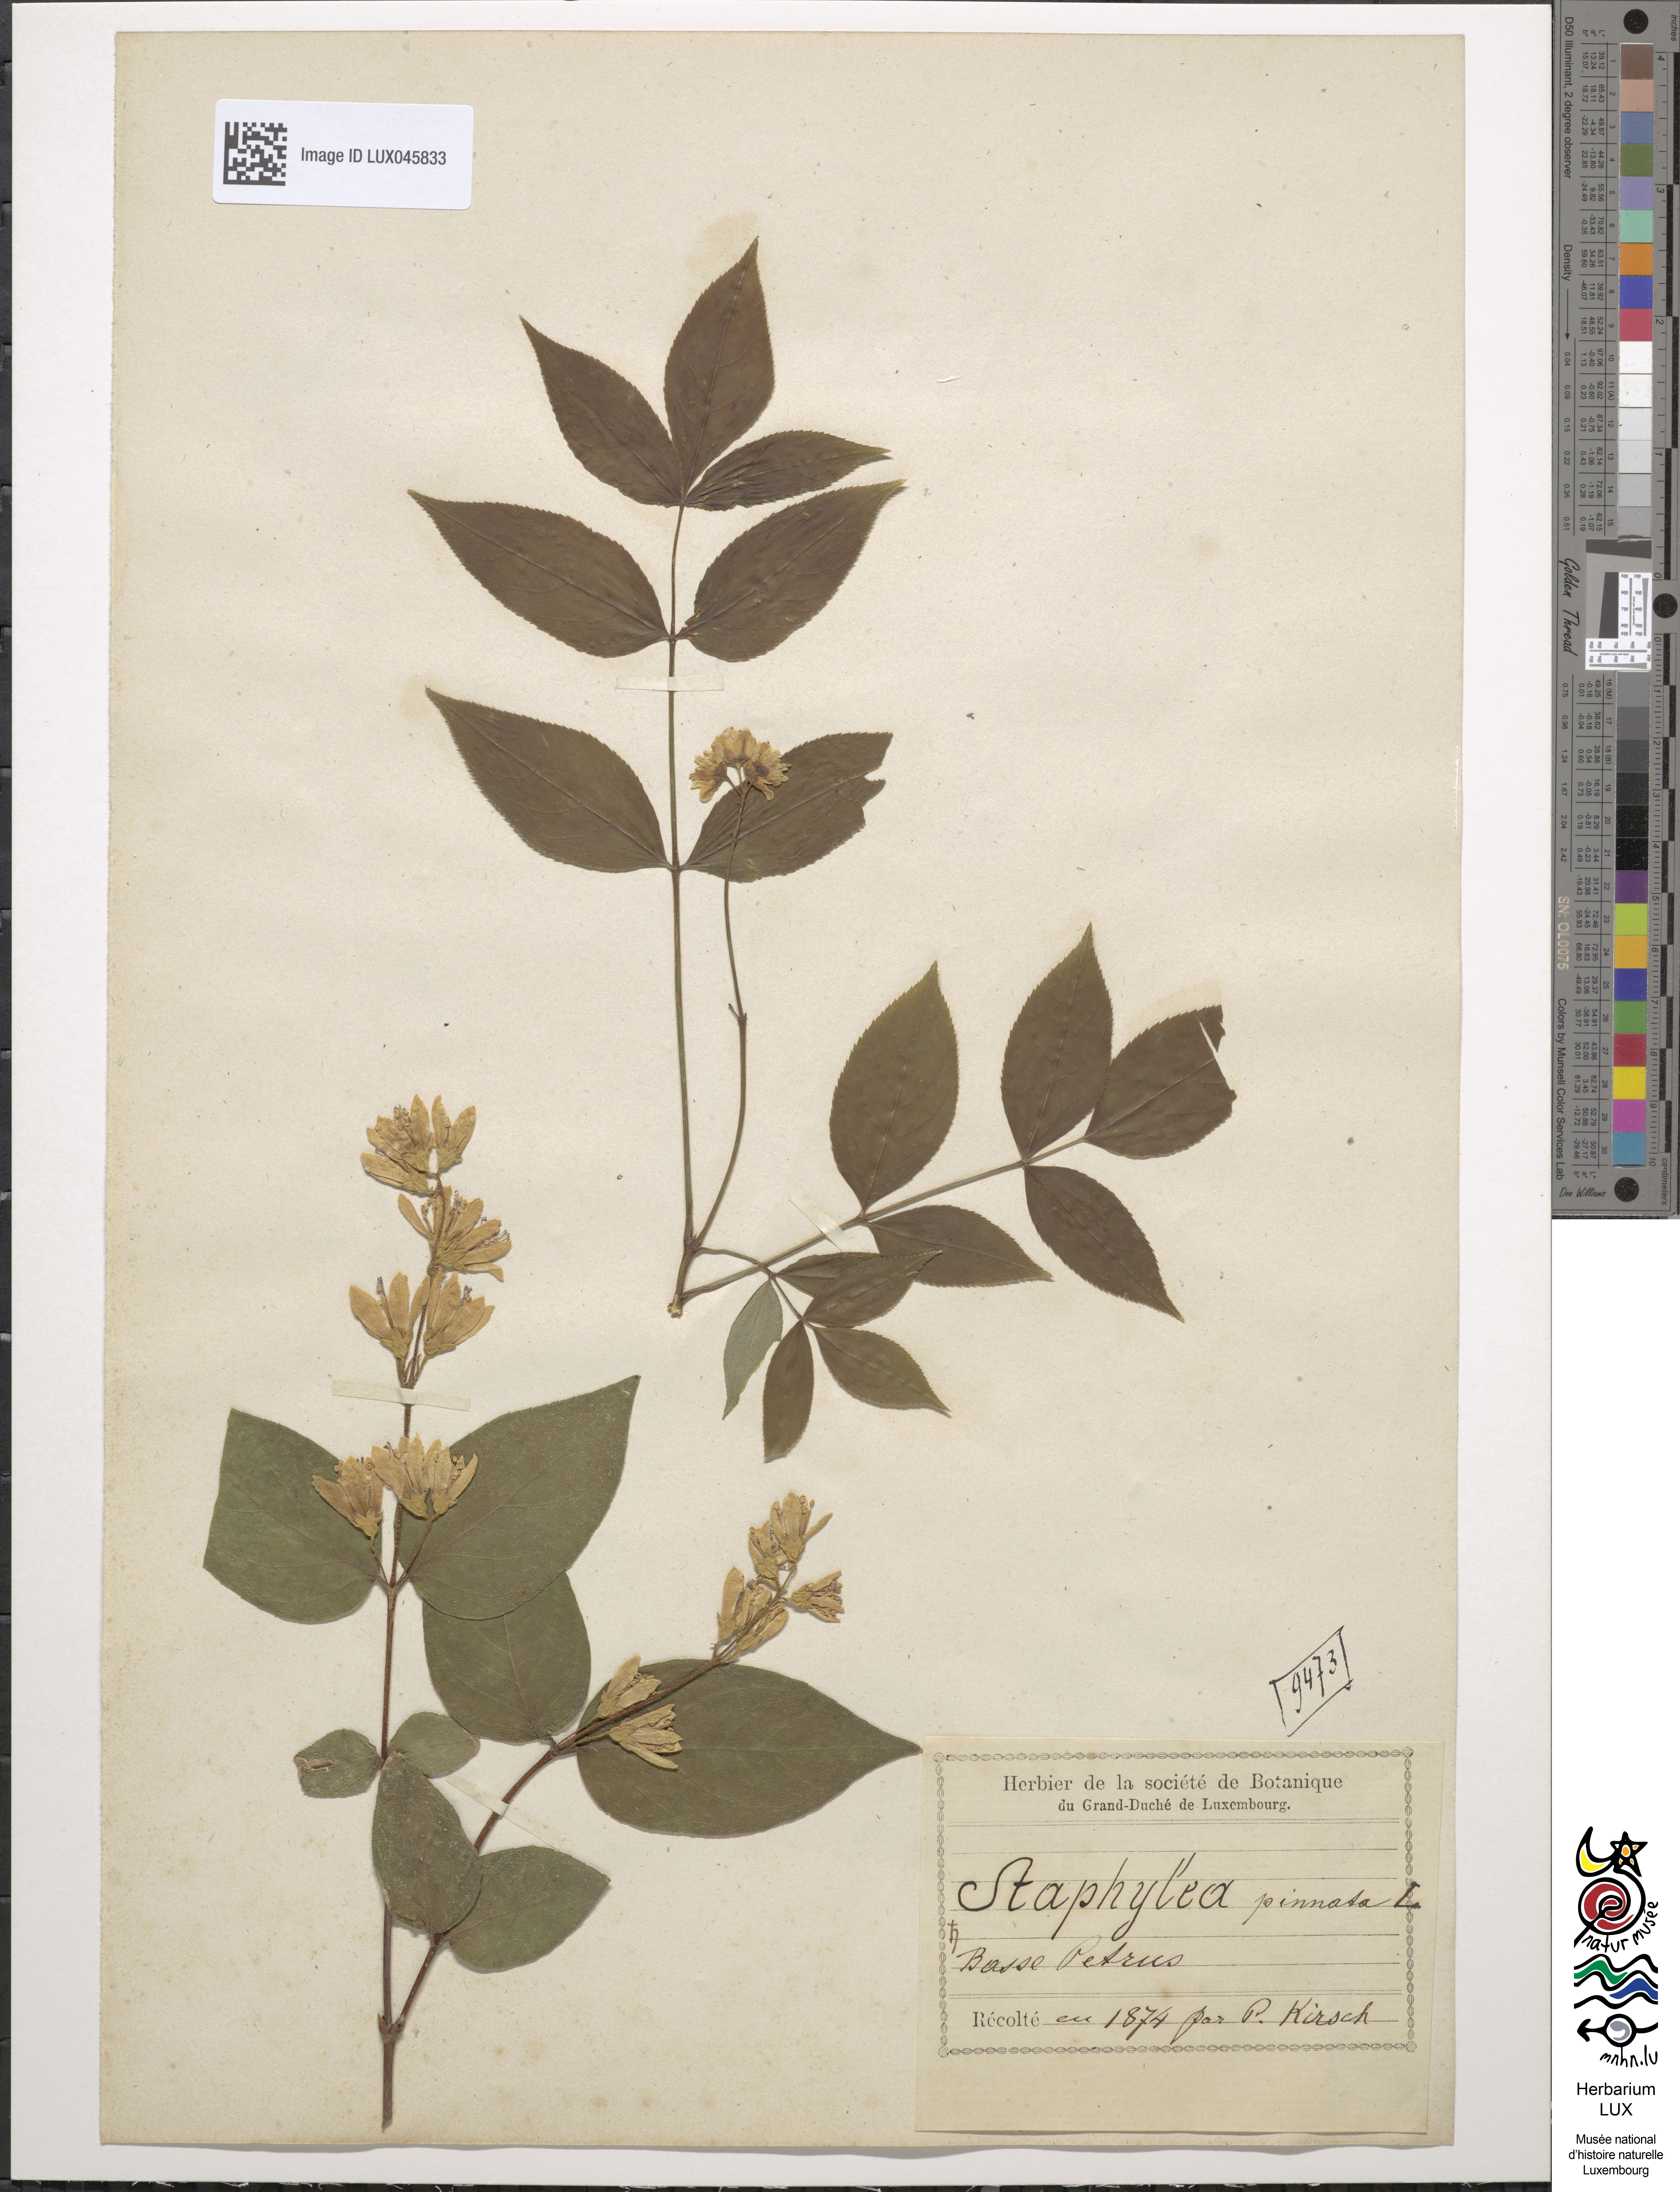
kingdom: Plantae
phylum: Tracheophyta
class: Magnoliopsida
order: Crossosomatales
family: Staphyleaceae
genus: Staphylea
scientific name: Staphylea pinnata
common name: Bladdernut
